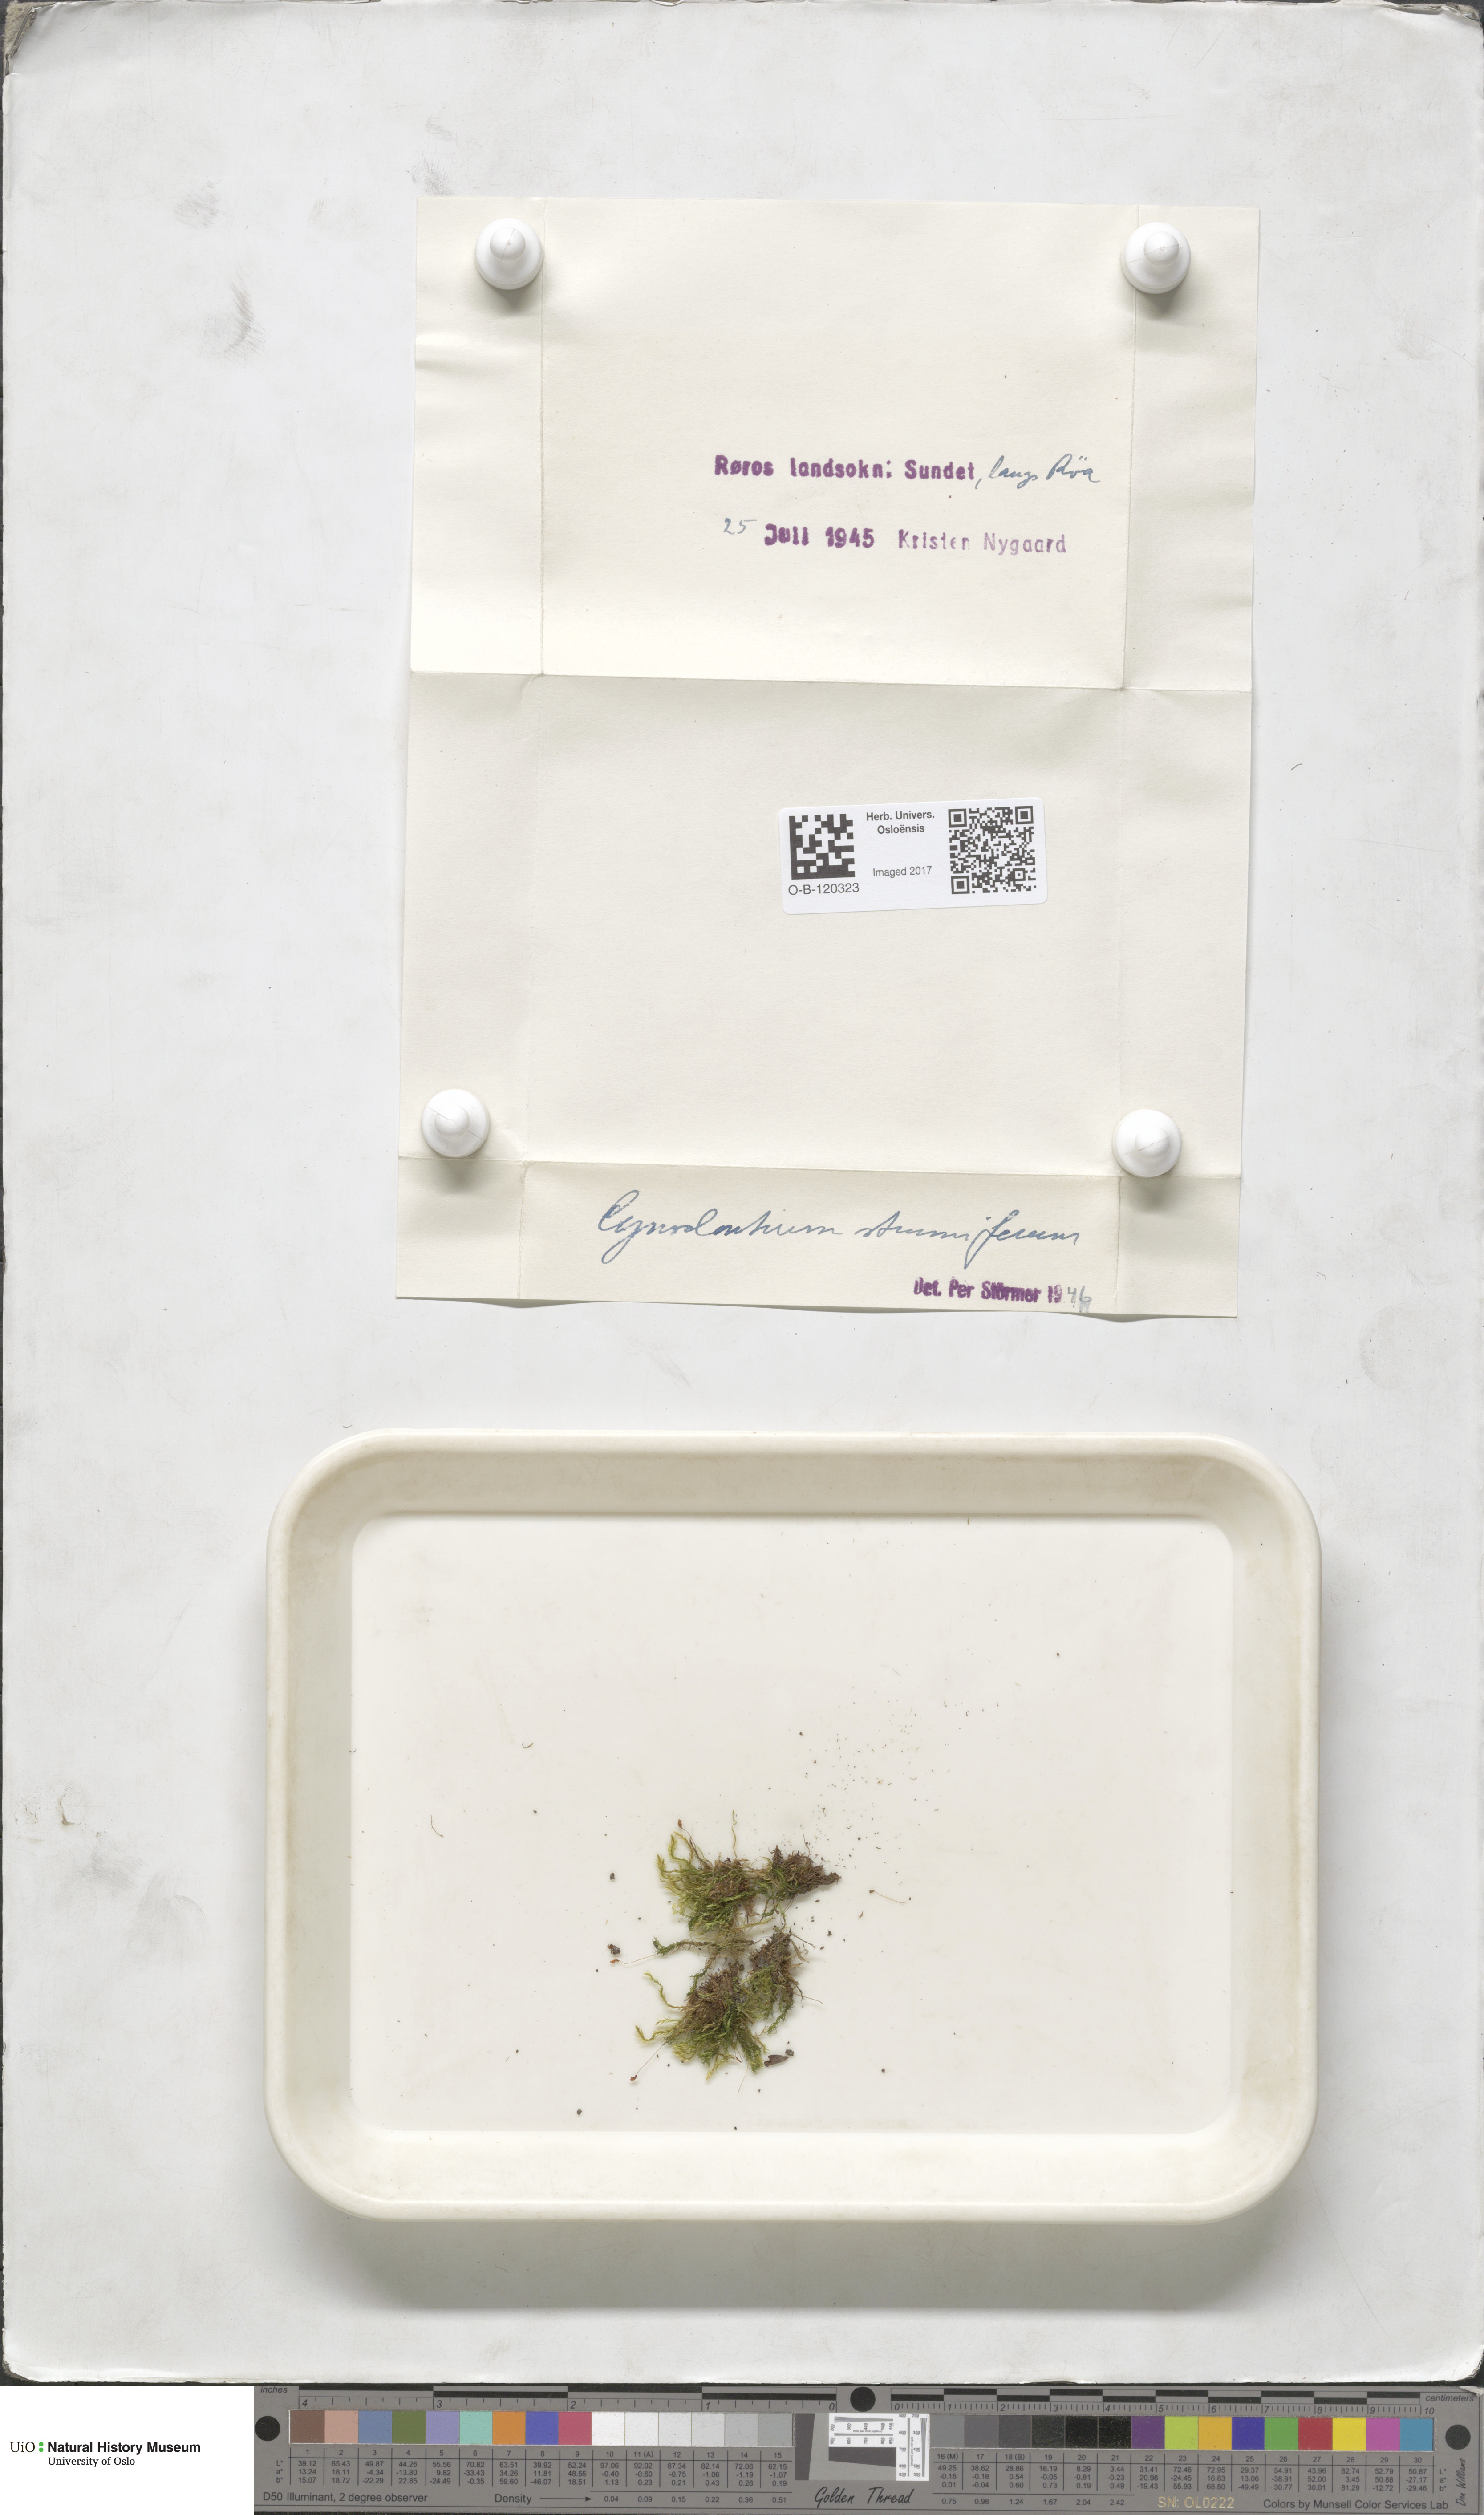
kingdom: Plantae
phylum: Bryophyta
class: Bryopsida
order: Dicranales
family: Rhabdoweisiaceae
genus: Cynodontium
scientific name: Cynodontium strumiferum
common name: Swollen dogtooth moss
